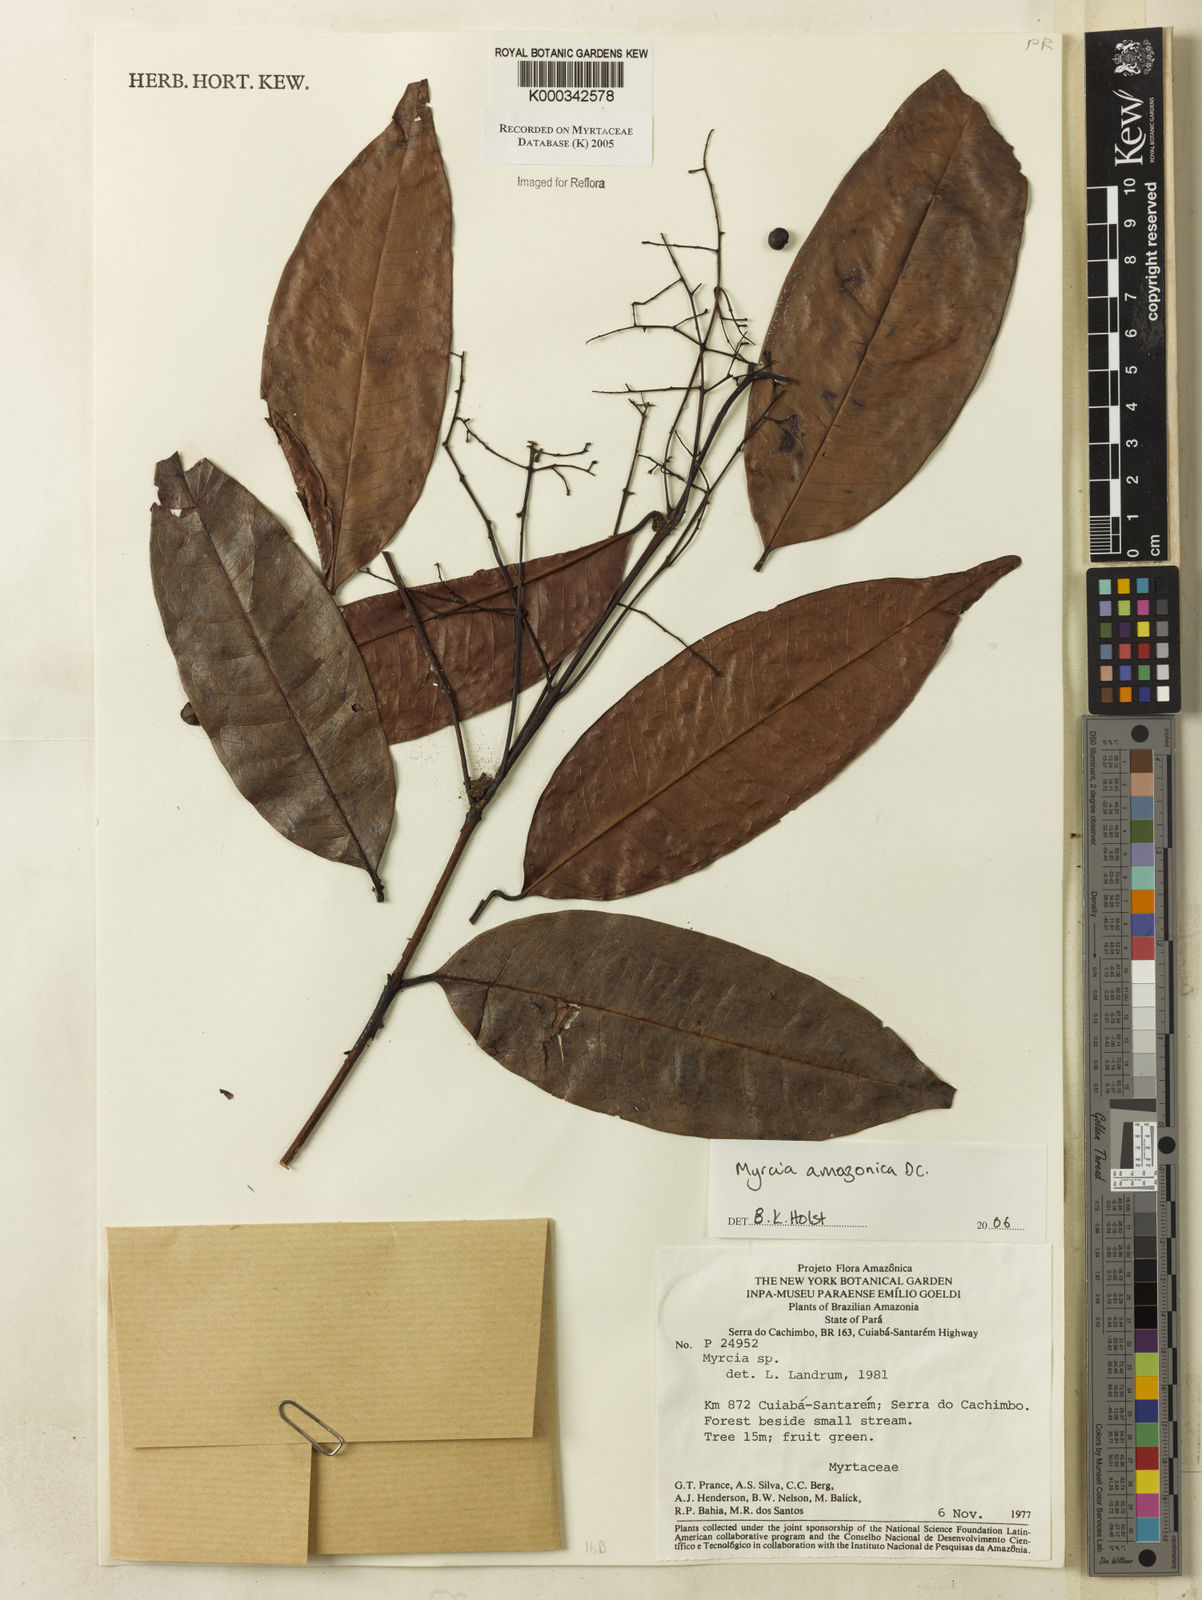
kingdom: Plantae
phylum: Tracheophyta
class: Magnoliopsida
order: Myrtales
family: Myrtaceae
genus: Myrcia
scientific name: Myrcia amazonica
